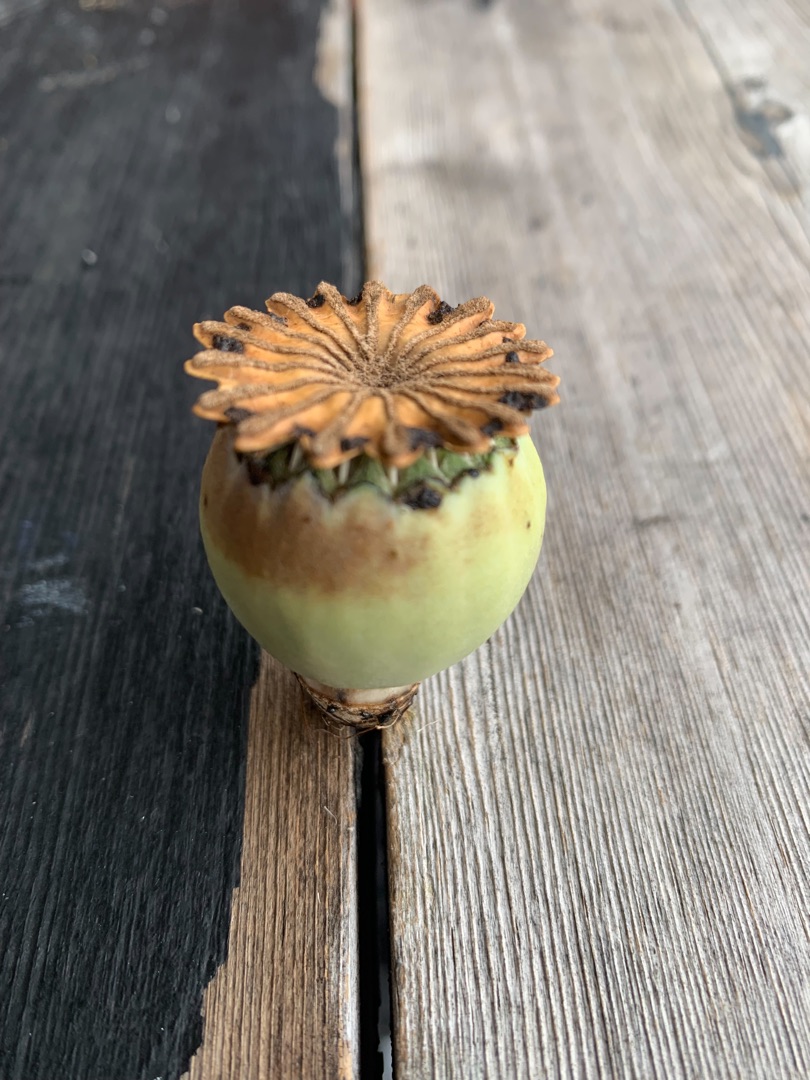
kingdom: Plantae
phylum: Tracheophyta
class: Magnoliopsida
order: Ranunculales
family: Papaveraceae
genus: Papaver
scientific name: Papaver setiferum
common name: Kæmpe-valmue
